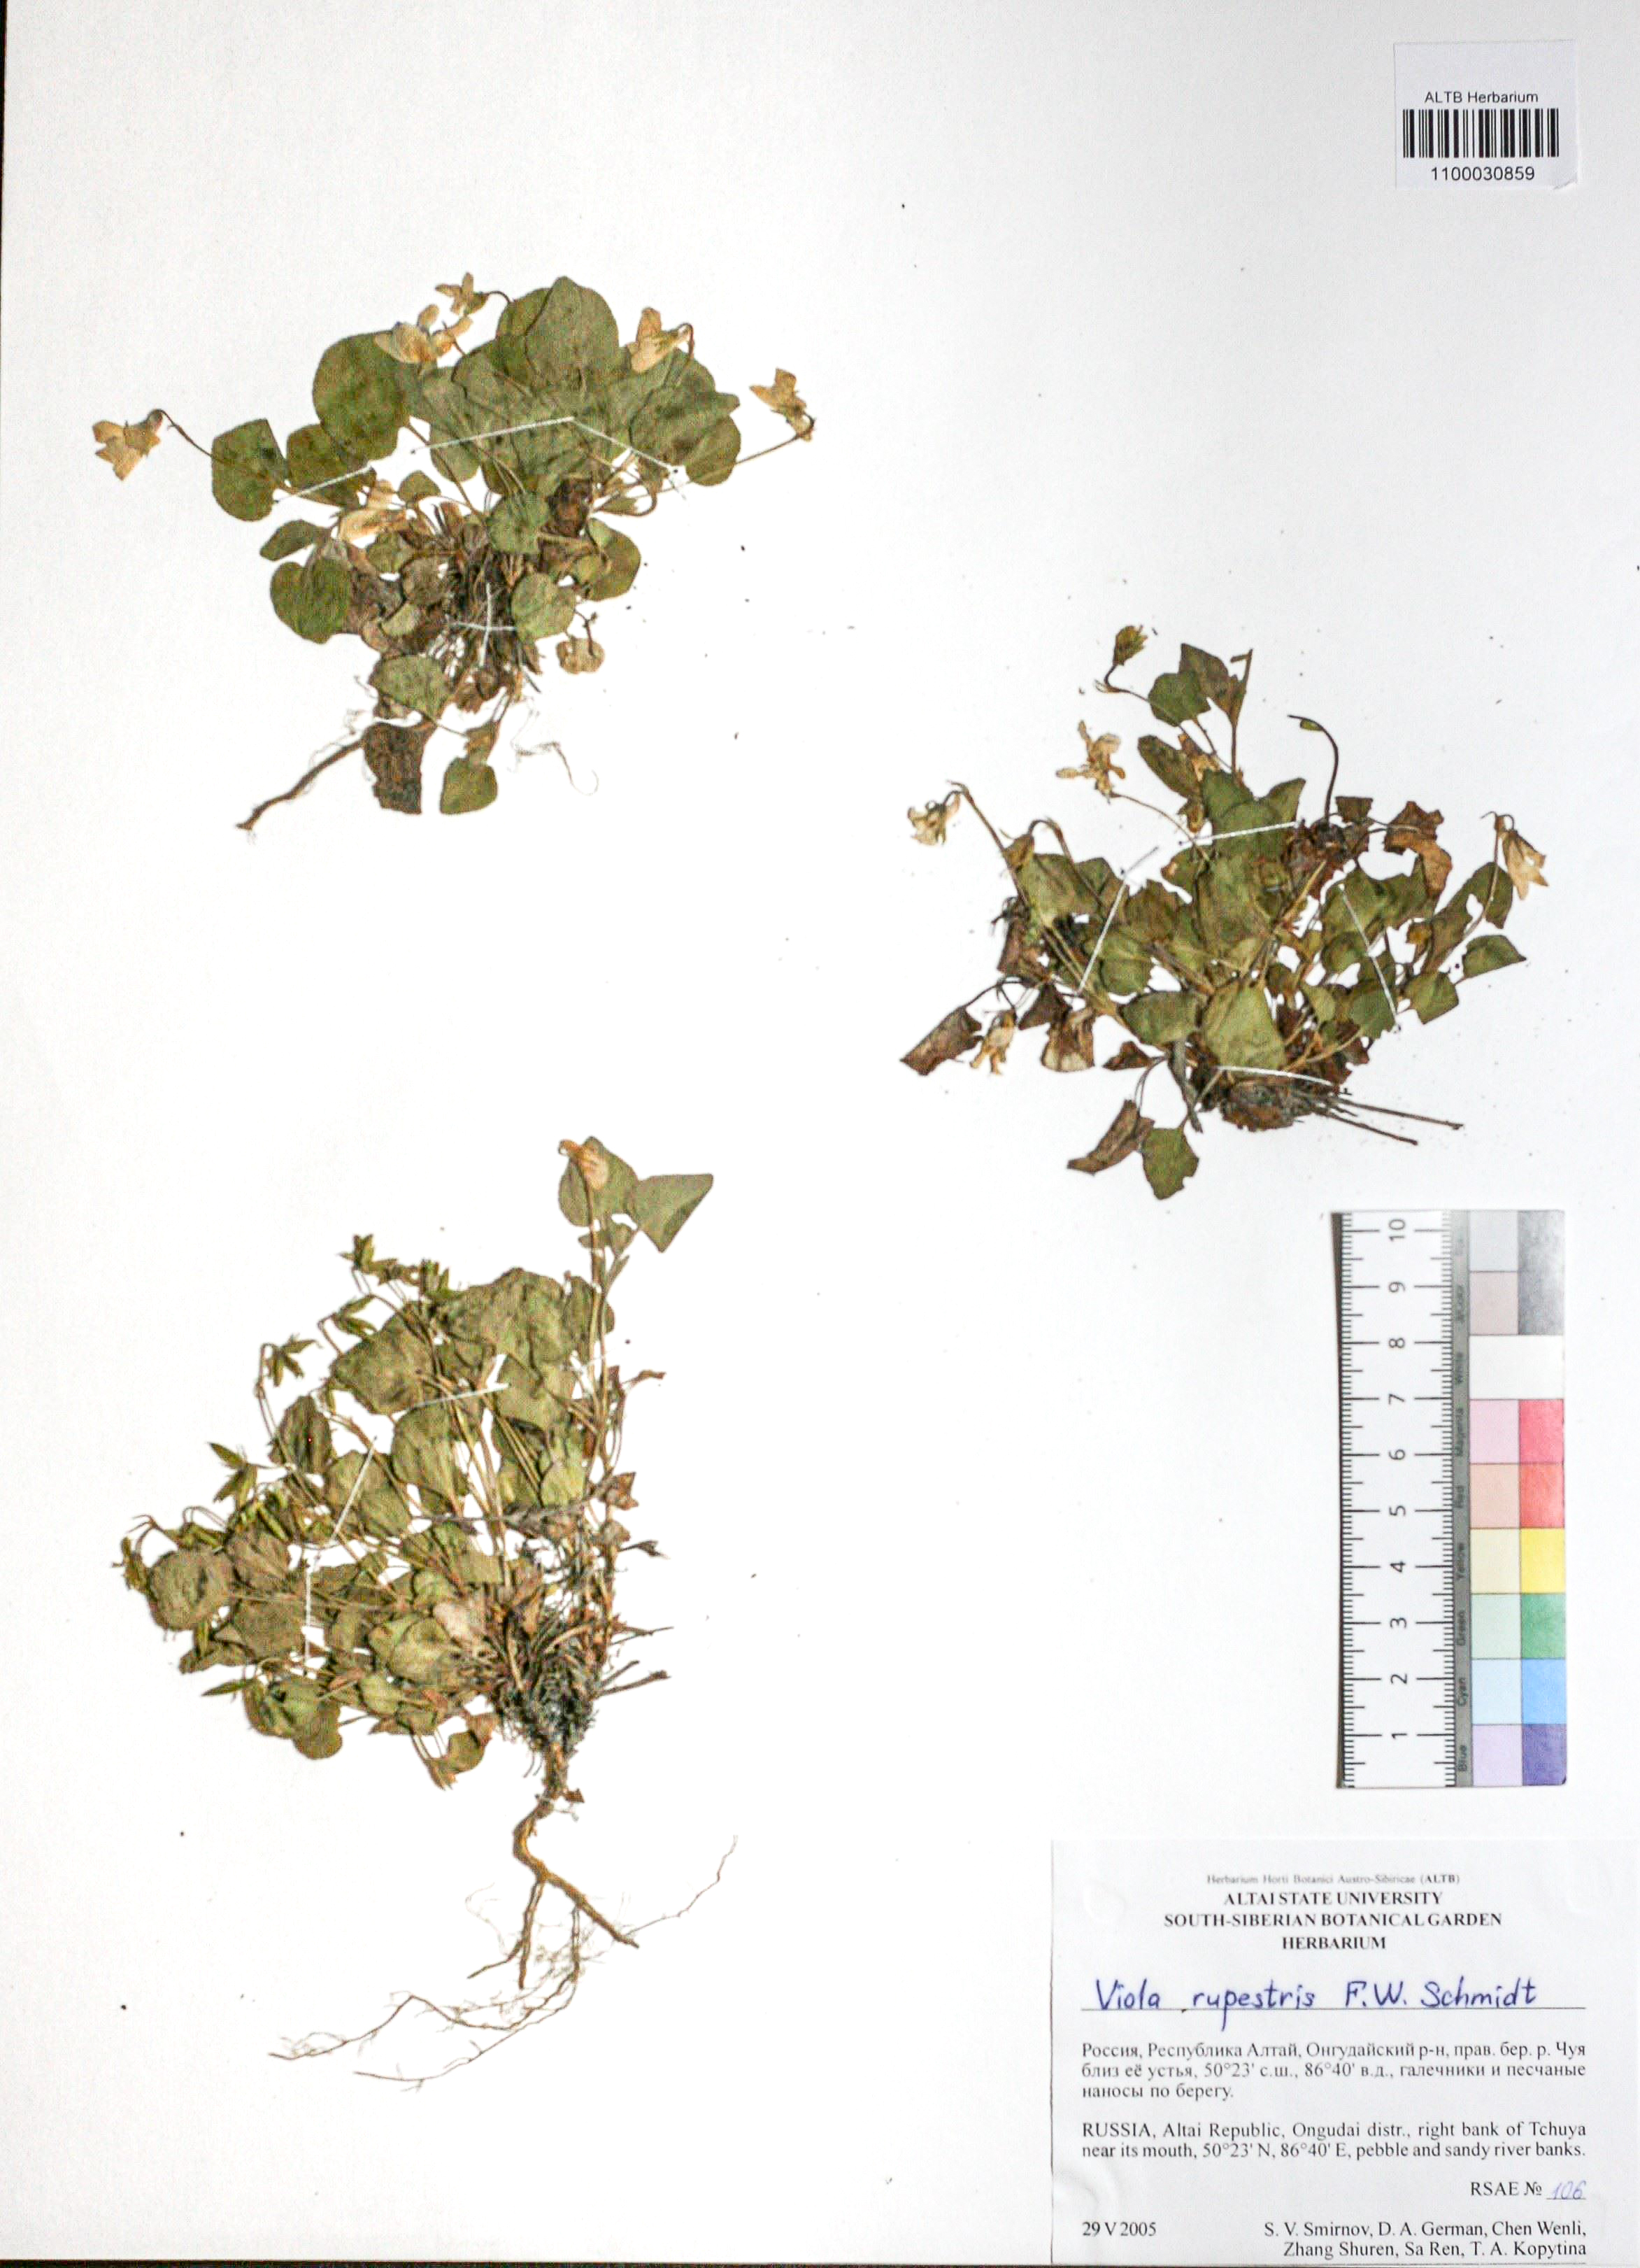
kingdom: Plantae
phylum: Tracheophyta
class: Magnoliopsida
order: Malpighiales
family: Violaceae
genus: Viola
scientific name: Viola rupestris
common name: Teesdale violet
